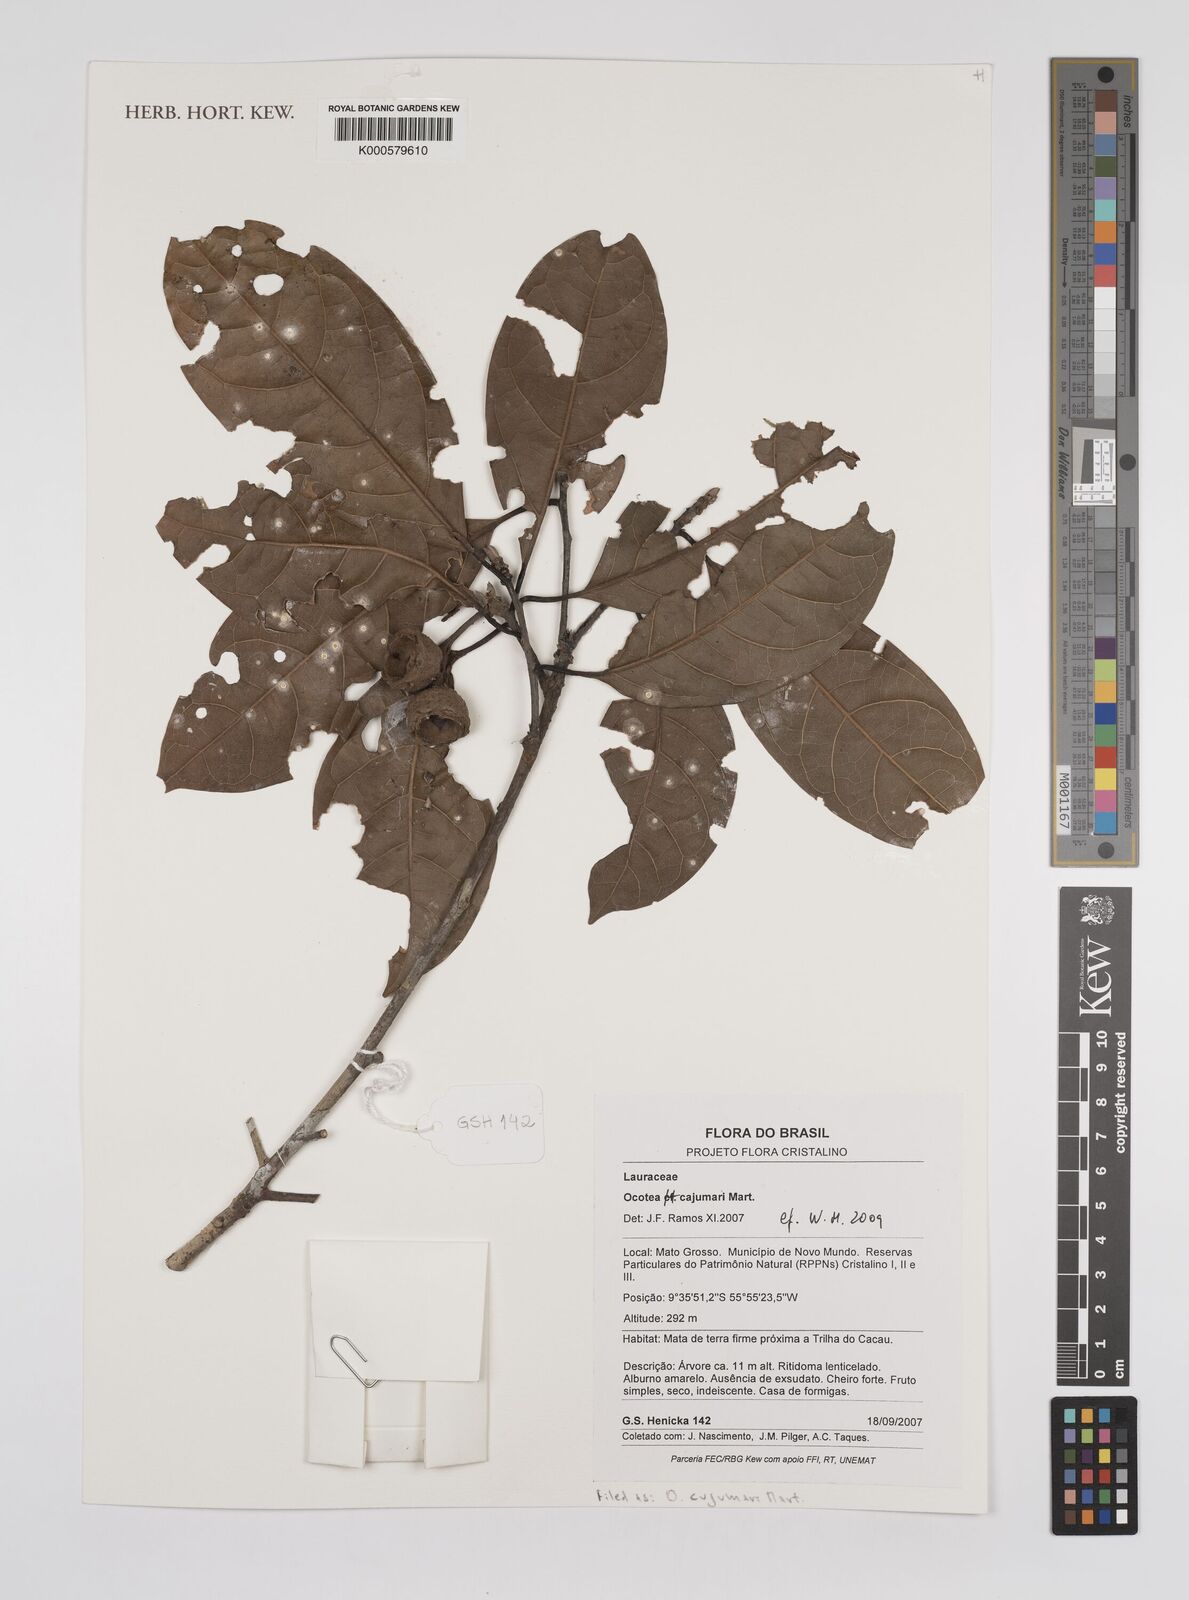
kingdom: Plantae
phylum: Tracheophyta
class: Magnoliopsida
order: Laurales
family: Lauraceae
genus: Ocotea
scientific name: Ocotea
